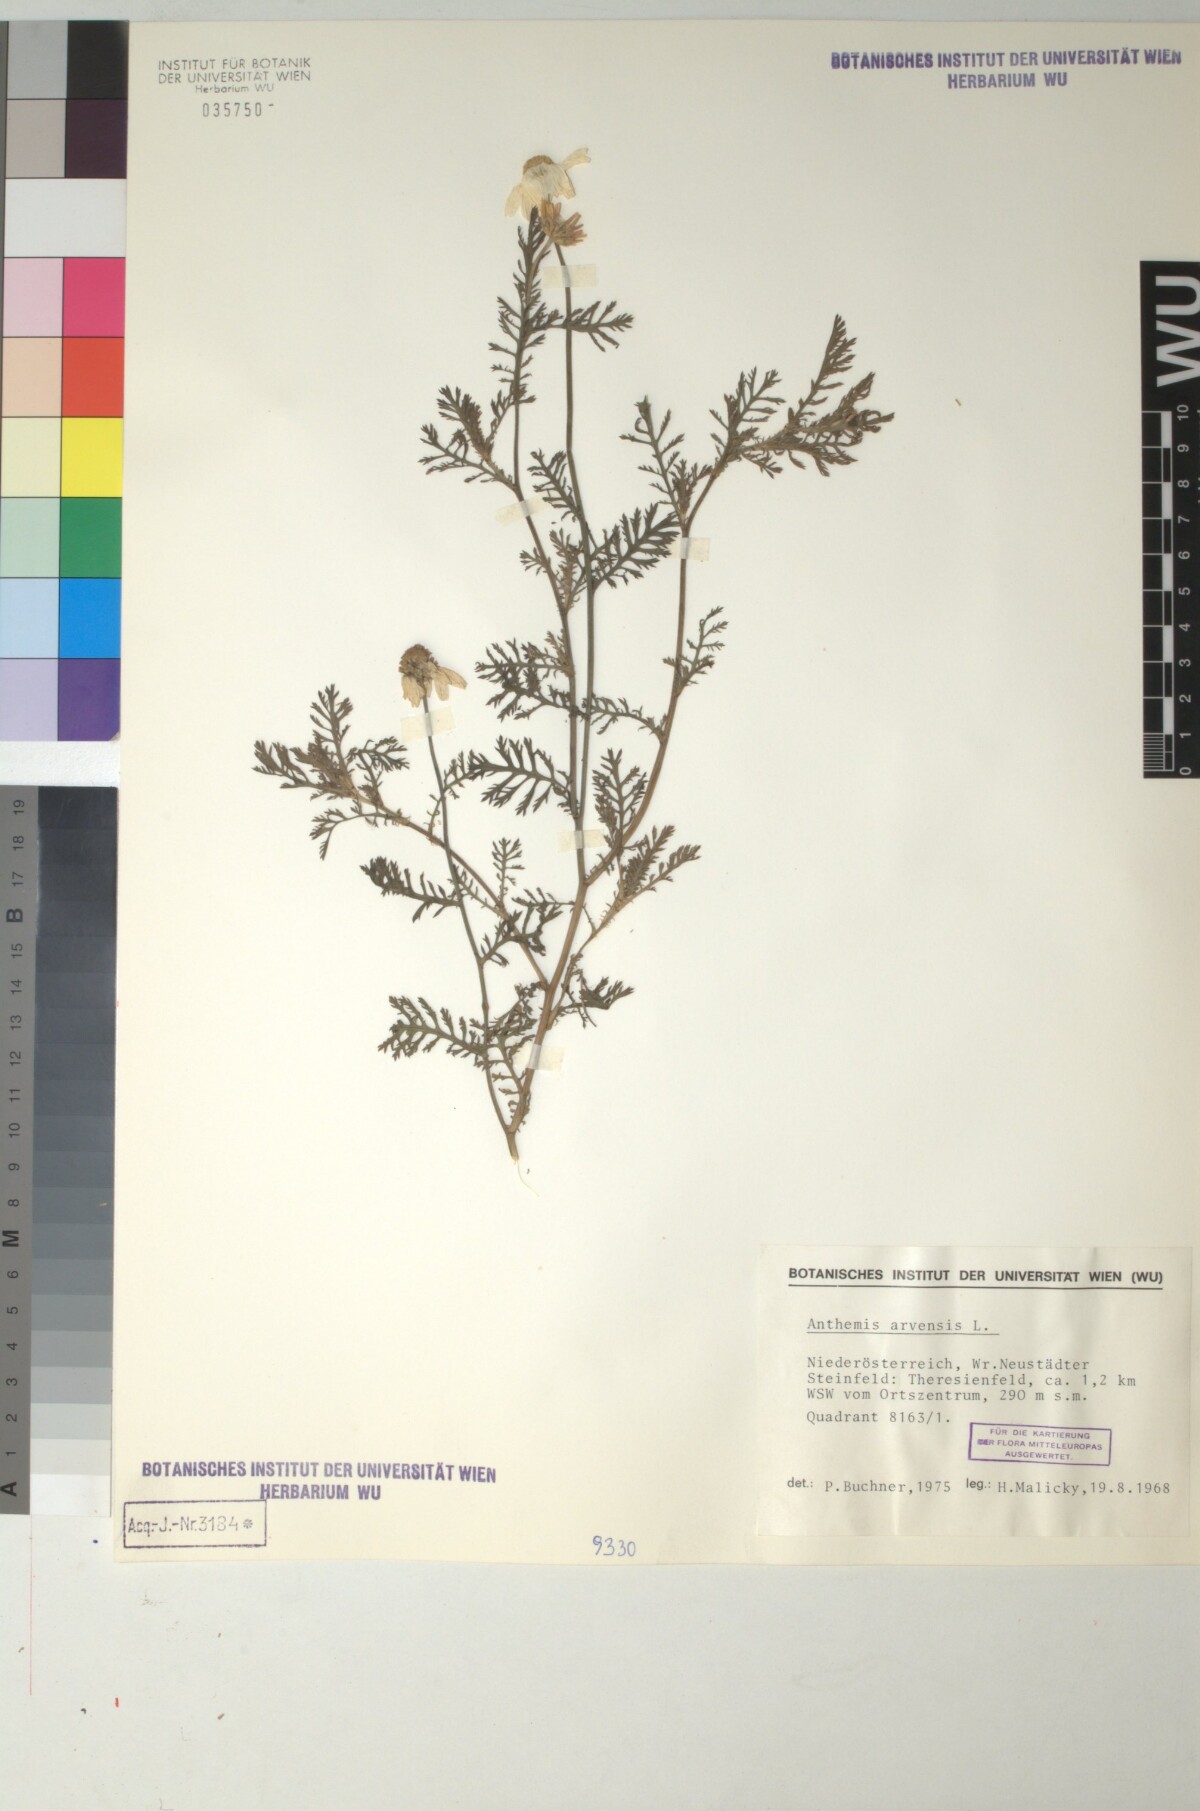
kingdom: Plantae
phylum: Tracheophyta
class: Magnoliopsida
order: Asterales
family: Asteraceae
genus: Anthemis
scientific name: Anthemis arvensis
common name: Corn chamomile
